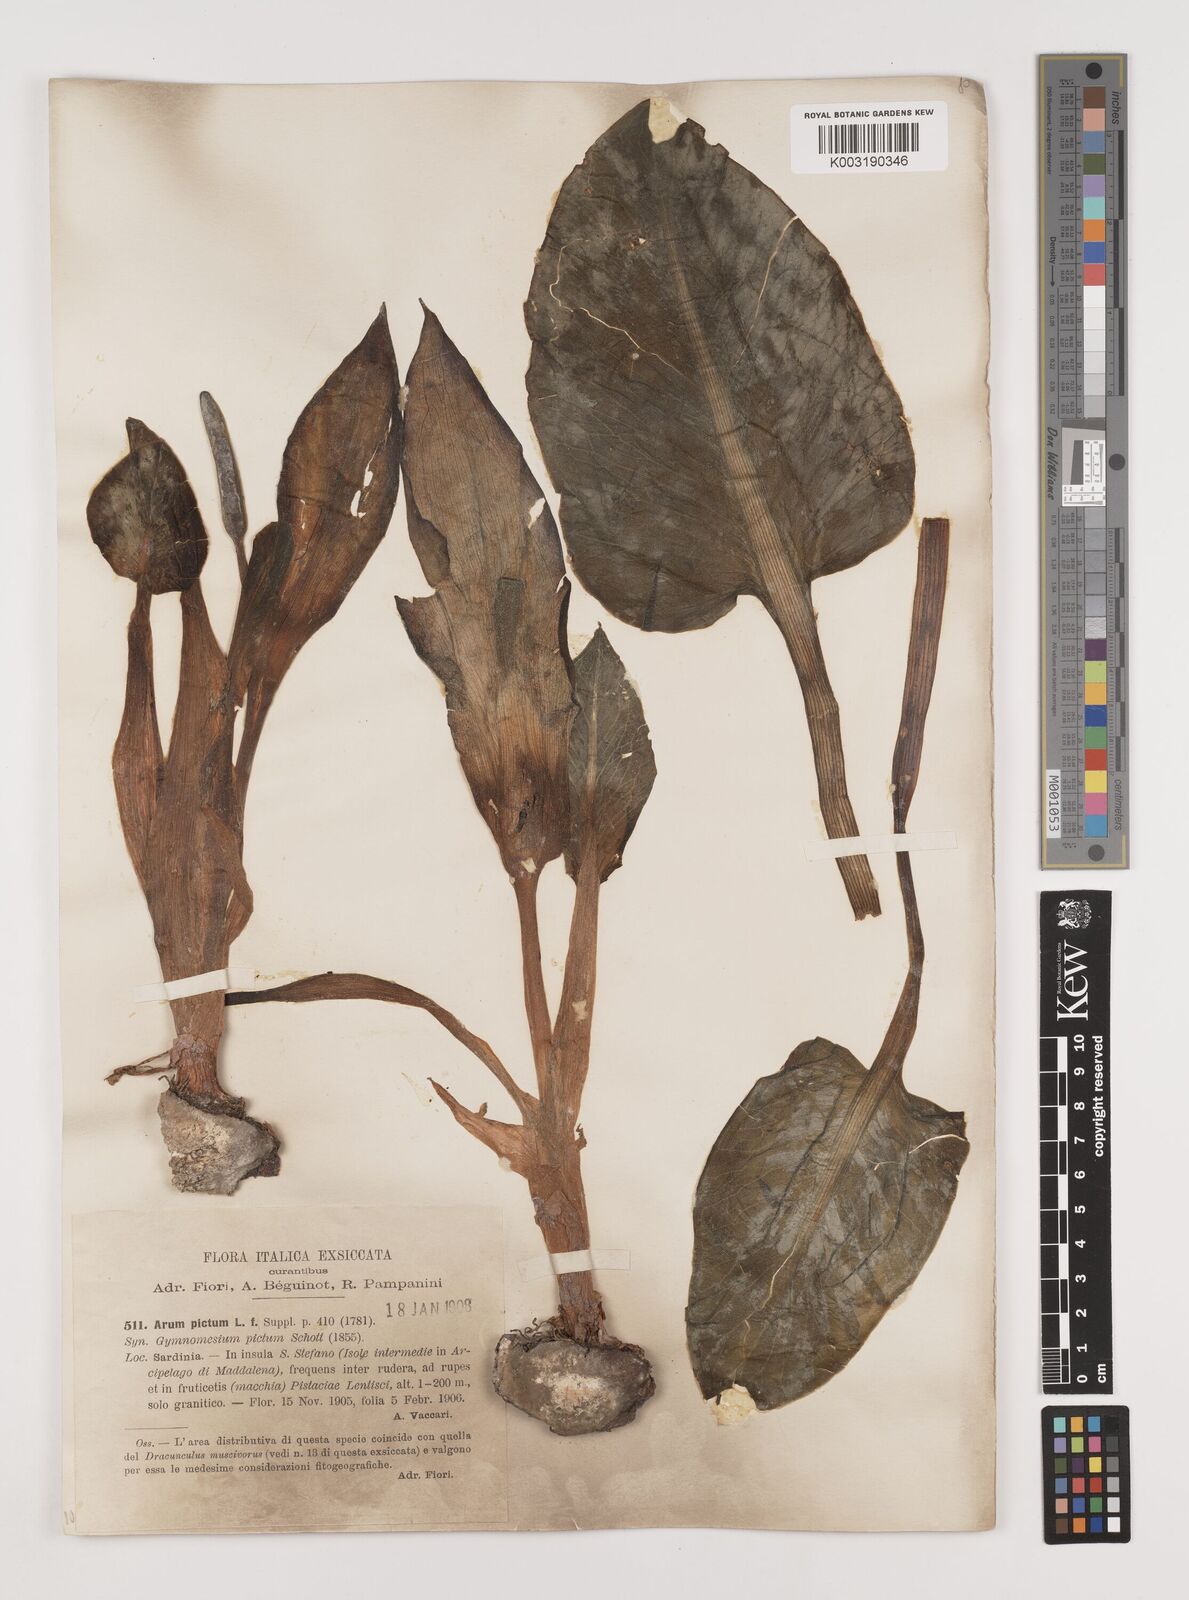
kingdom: Plantae
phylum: Tracheophyta
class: Liliopsida
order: Alismatales
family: Araceae
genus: Arum
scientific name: Arum pictum
